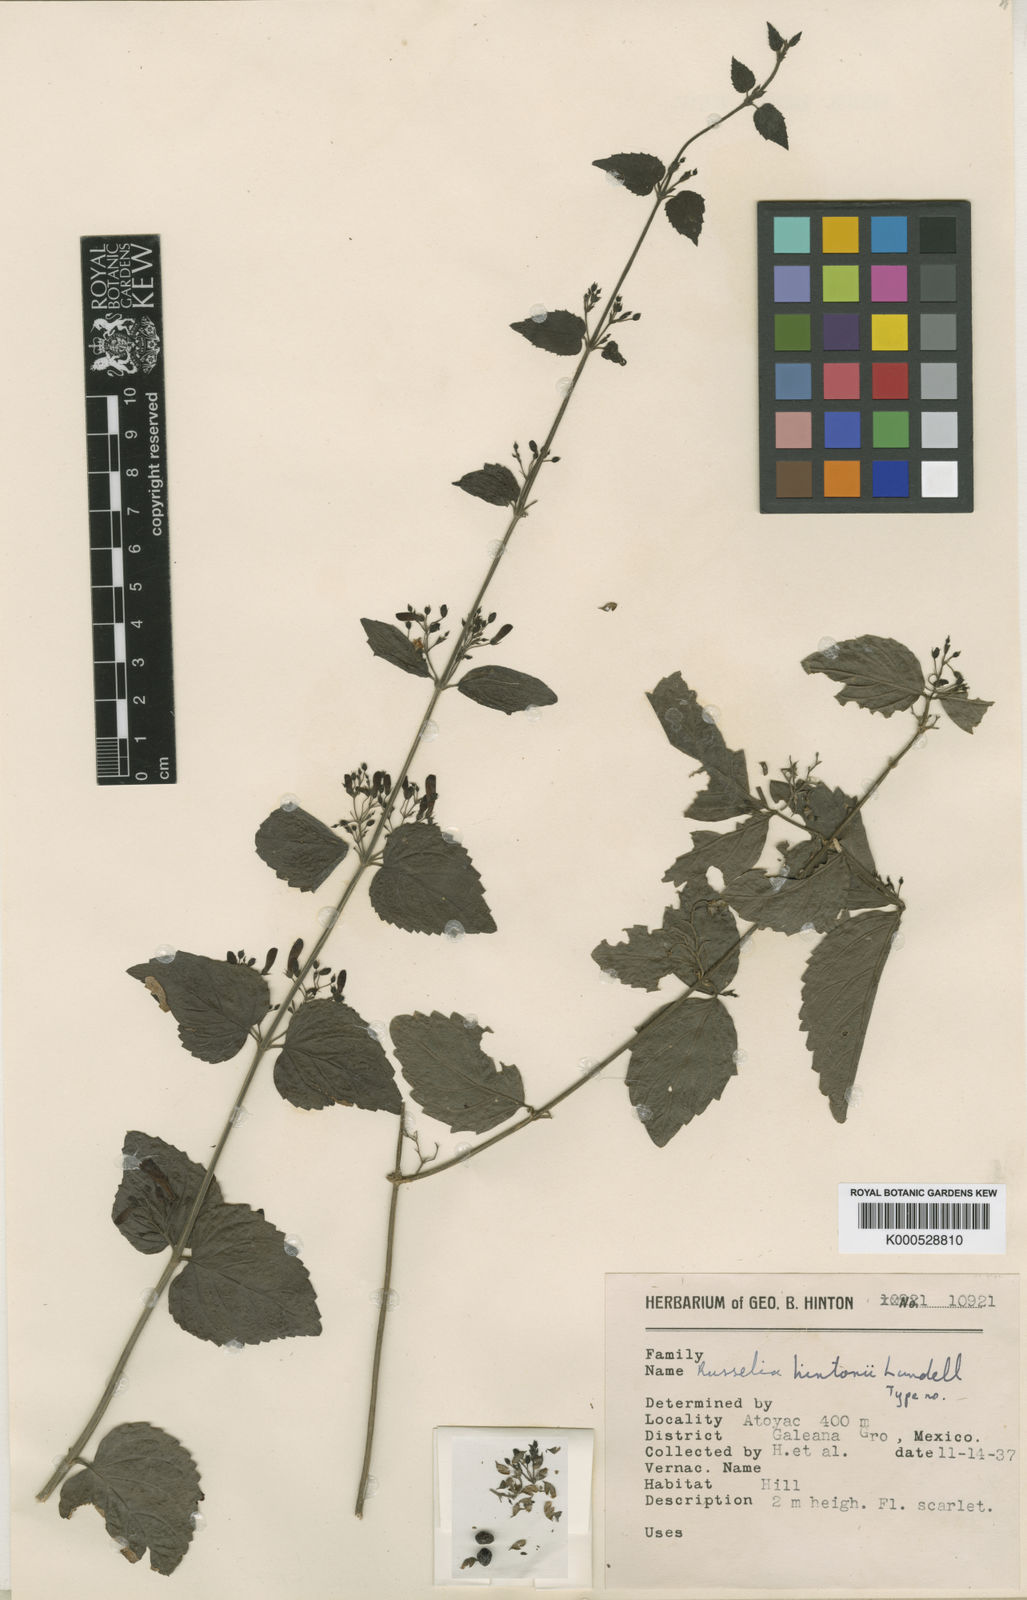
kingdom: Plantae
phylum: Tracheophyta
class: Magnoliopsida
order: Lamiales
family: Plantaginaceae
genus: Russelia
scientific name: Russelia hintonii
